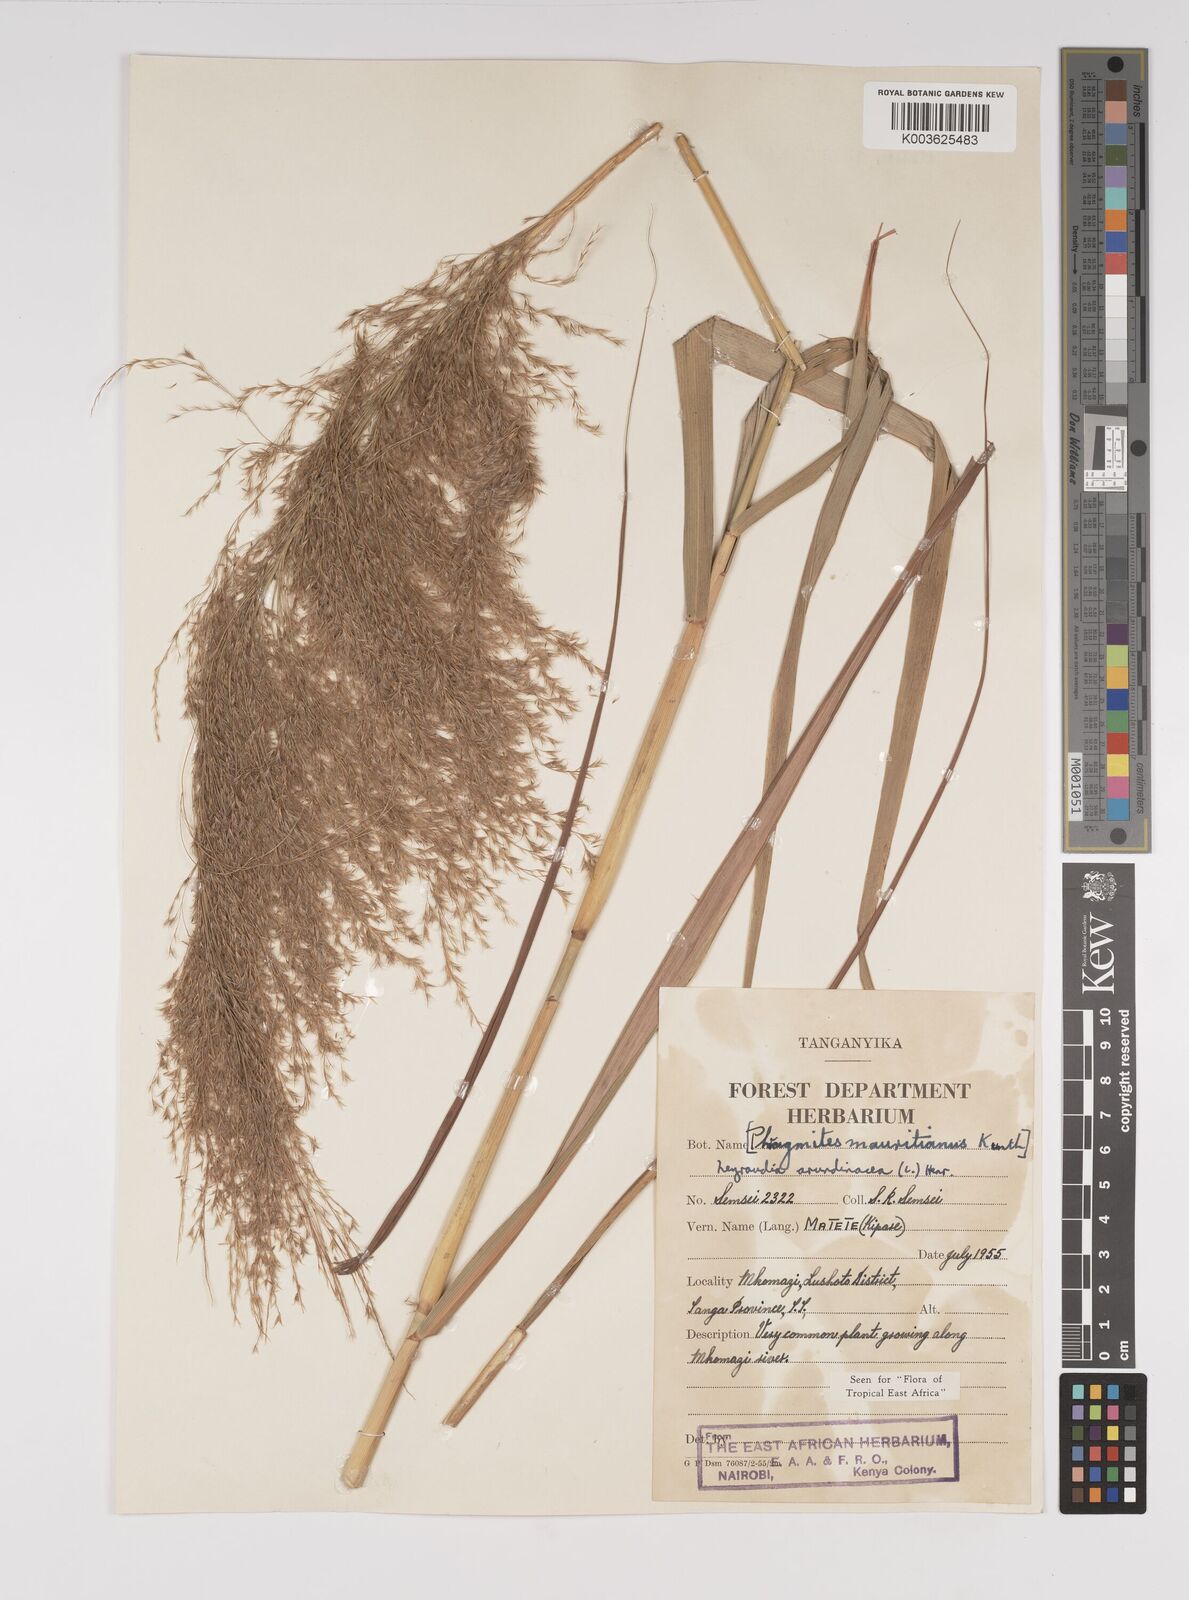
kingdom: Plantae
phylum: Tracheophyta
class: Liliopsida
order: Poales
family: Poaceae
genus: Neyraudia
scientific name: Neyraudia arundinacea
